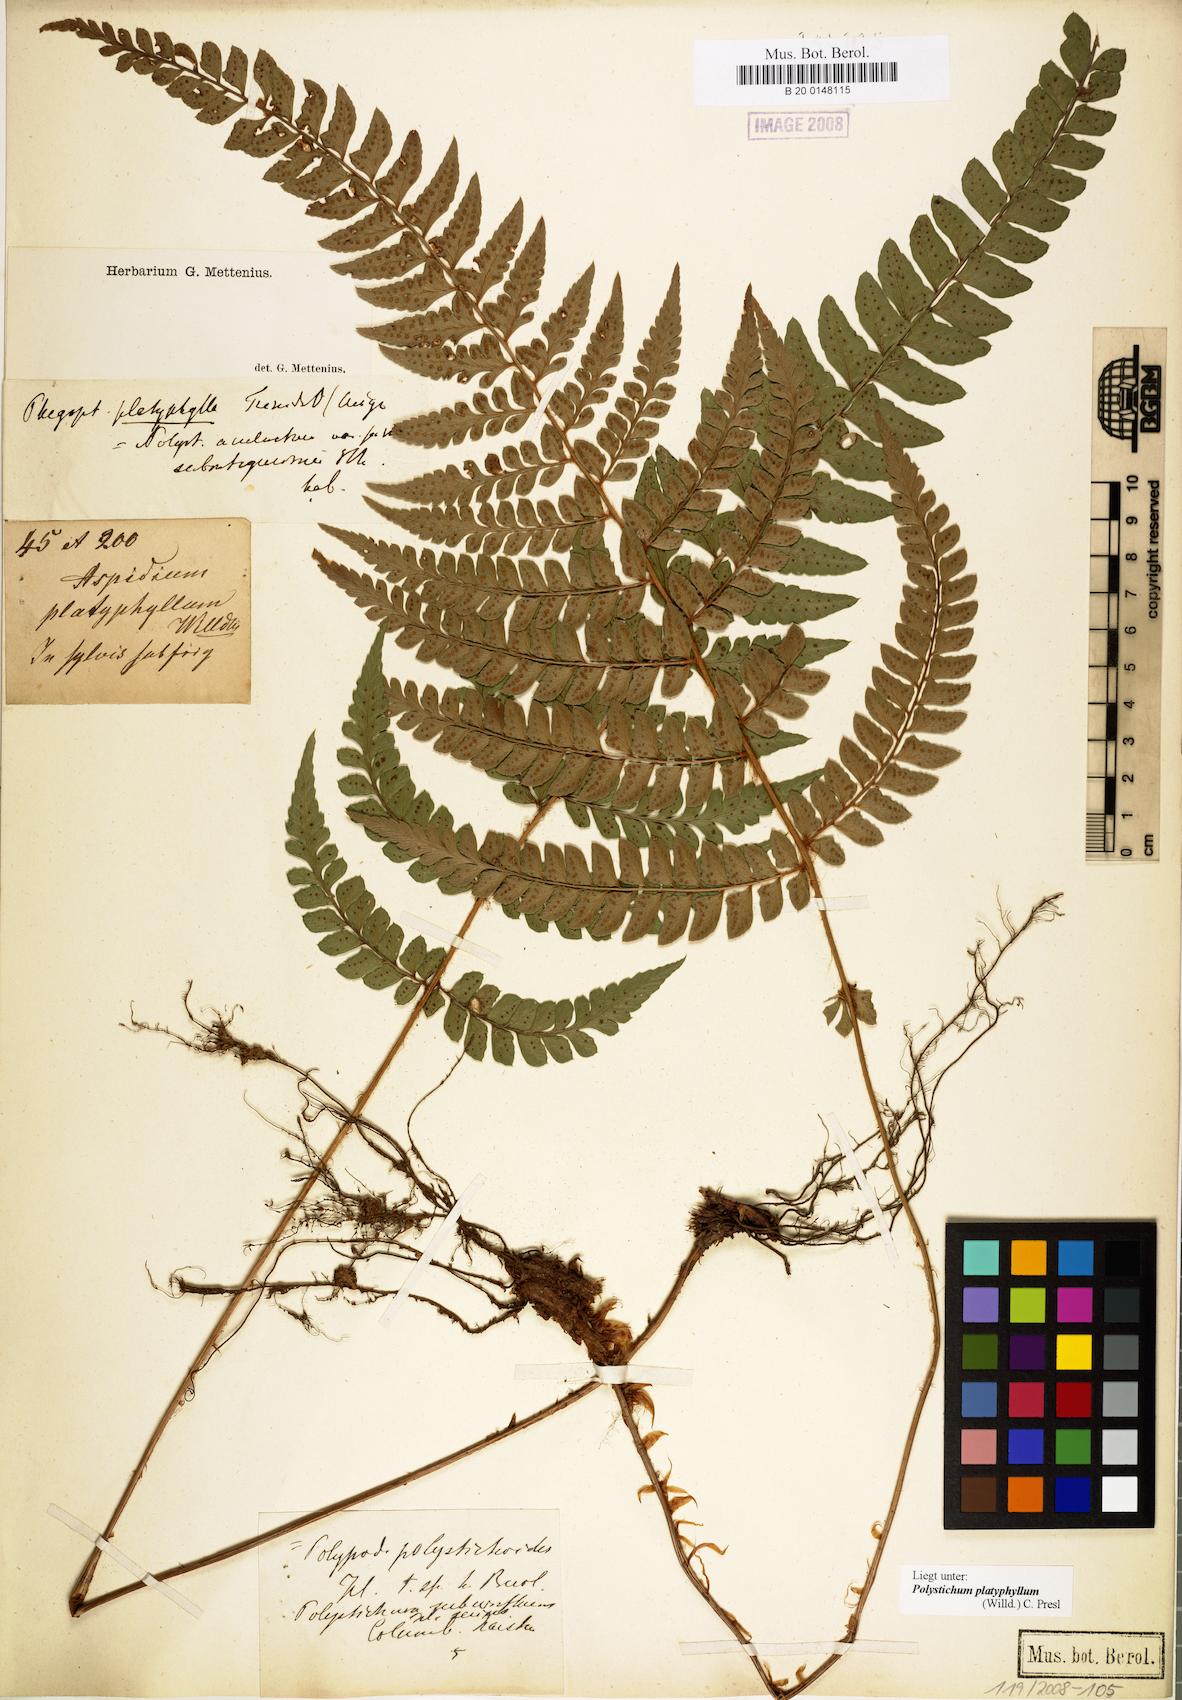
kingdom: Plantae
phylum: Tracheophyta
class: Polypodiopsida
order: Polypodiales
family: Dryopteridaceae
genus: Polystichum
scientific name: Polystichum platyphyllum
